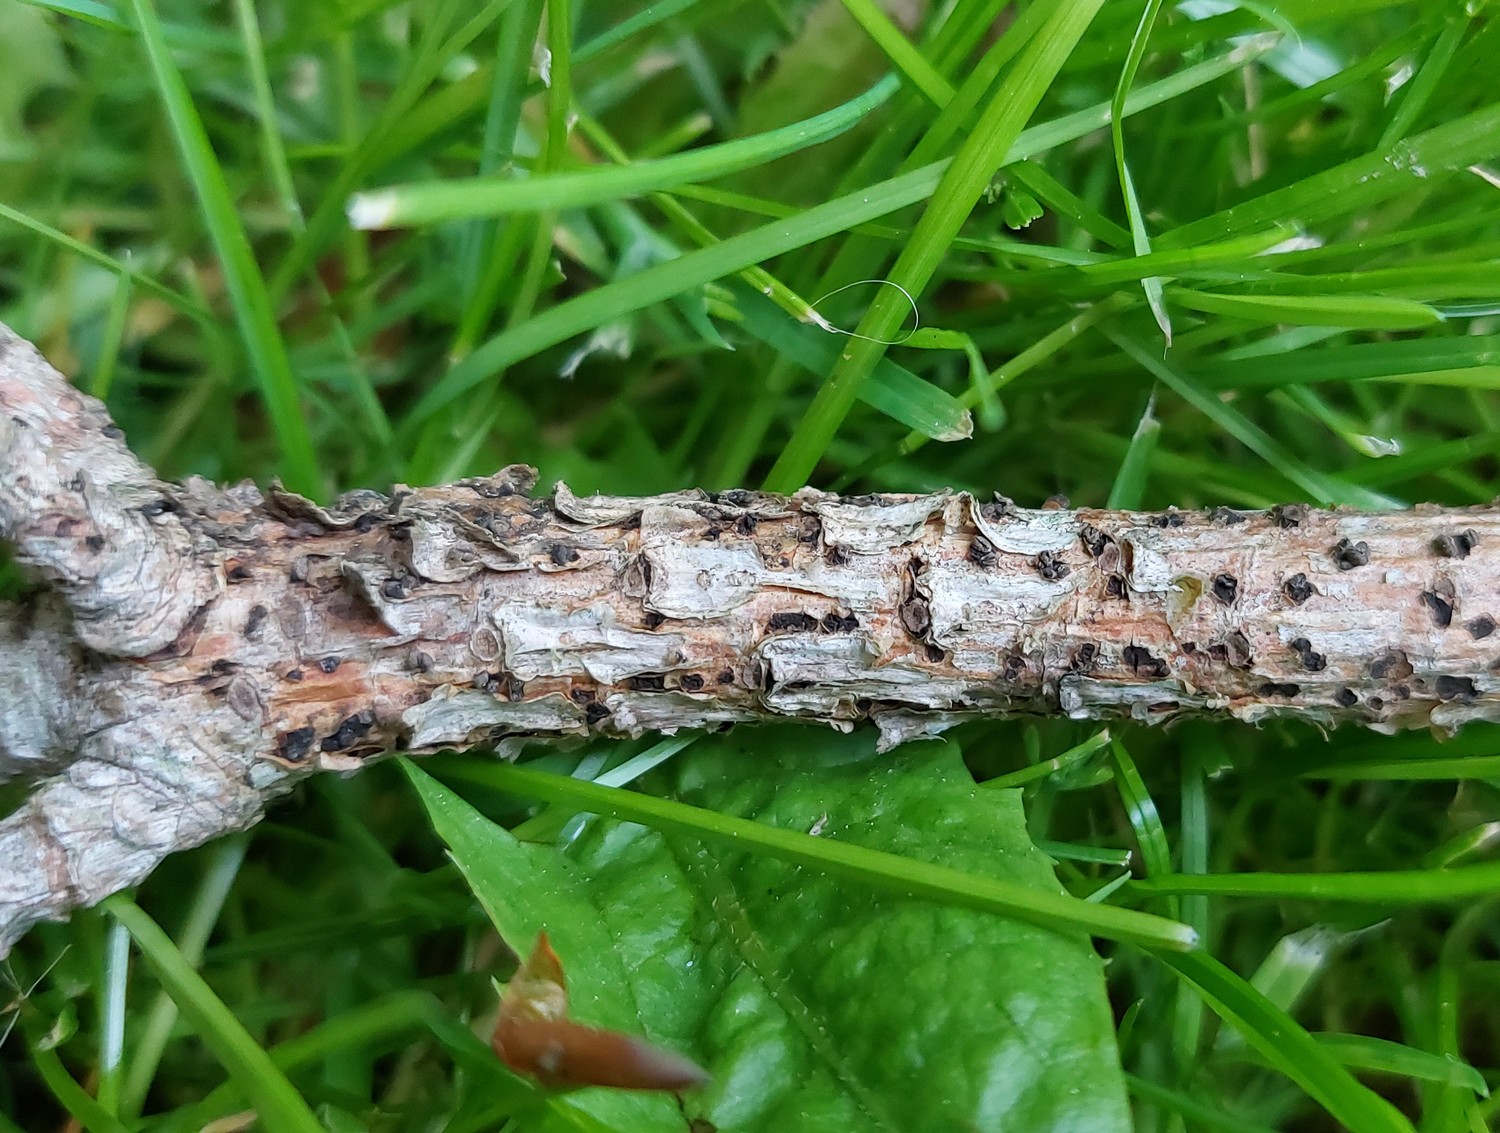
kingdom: Fungi
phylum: Ascomycota
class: Leotiomycetes
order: Helotiales
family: Cenangiaceae
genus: Cenangium
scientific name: Cenangium ferruginosum
